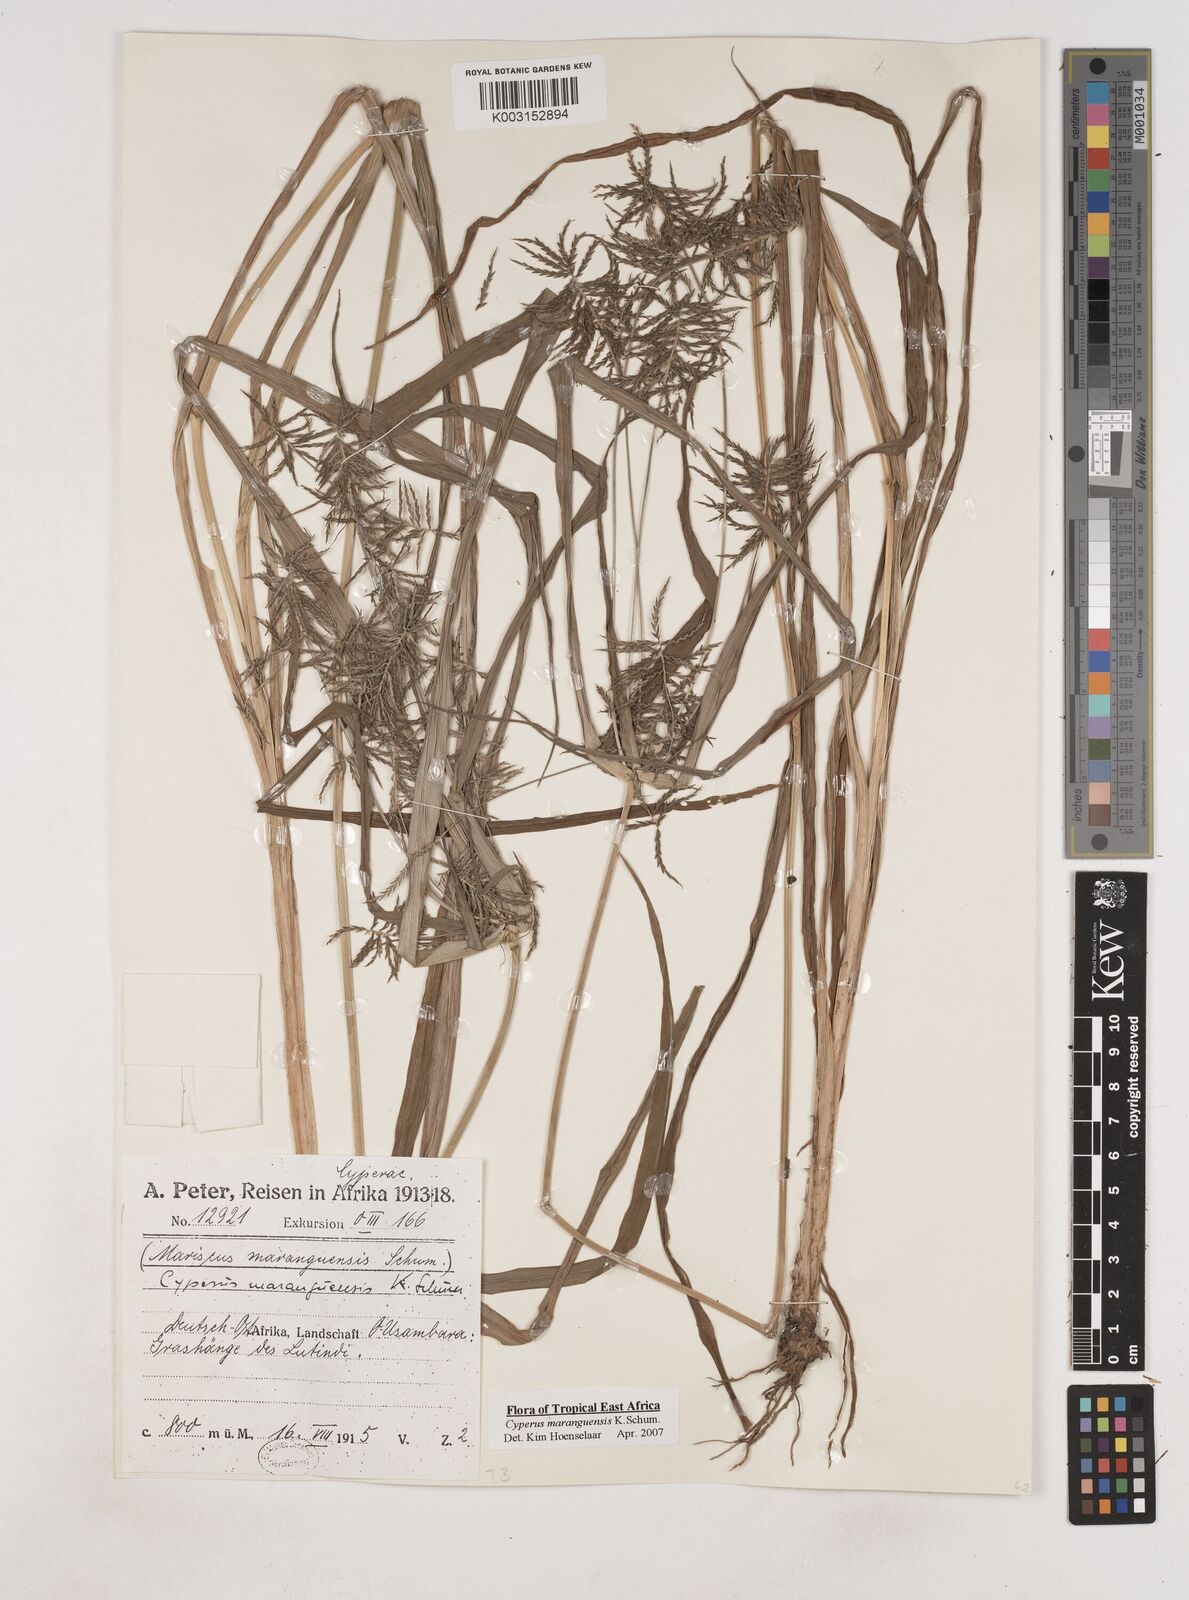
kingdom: Plantae
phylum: Tracheophyta
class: Liliopsida
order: Poales
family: Cyperaceae
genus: Cyperus
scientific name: Cyperus maranguensis
